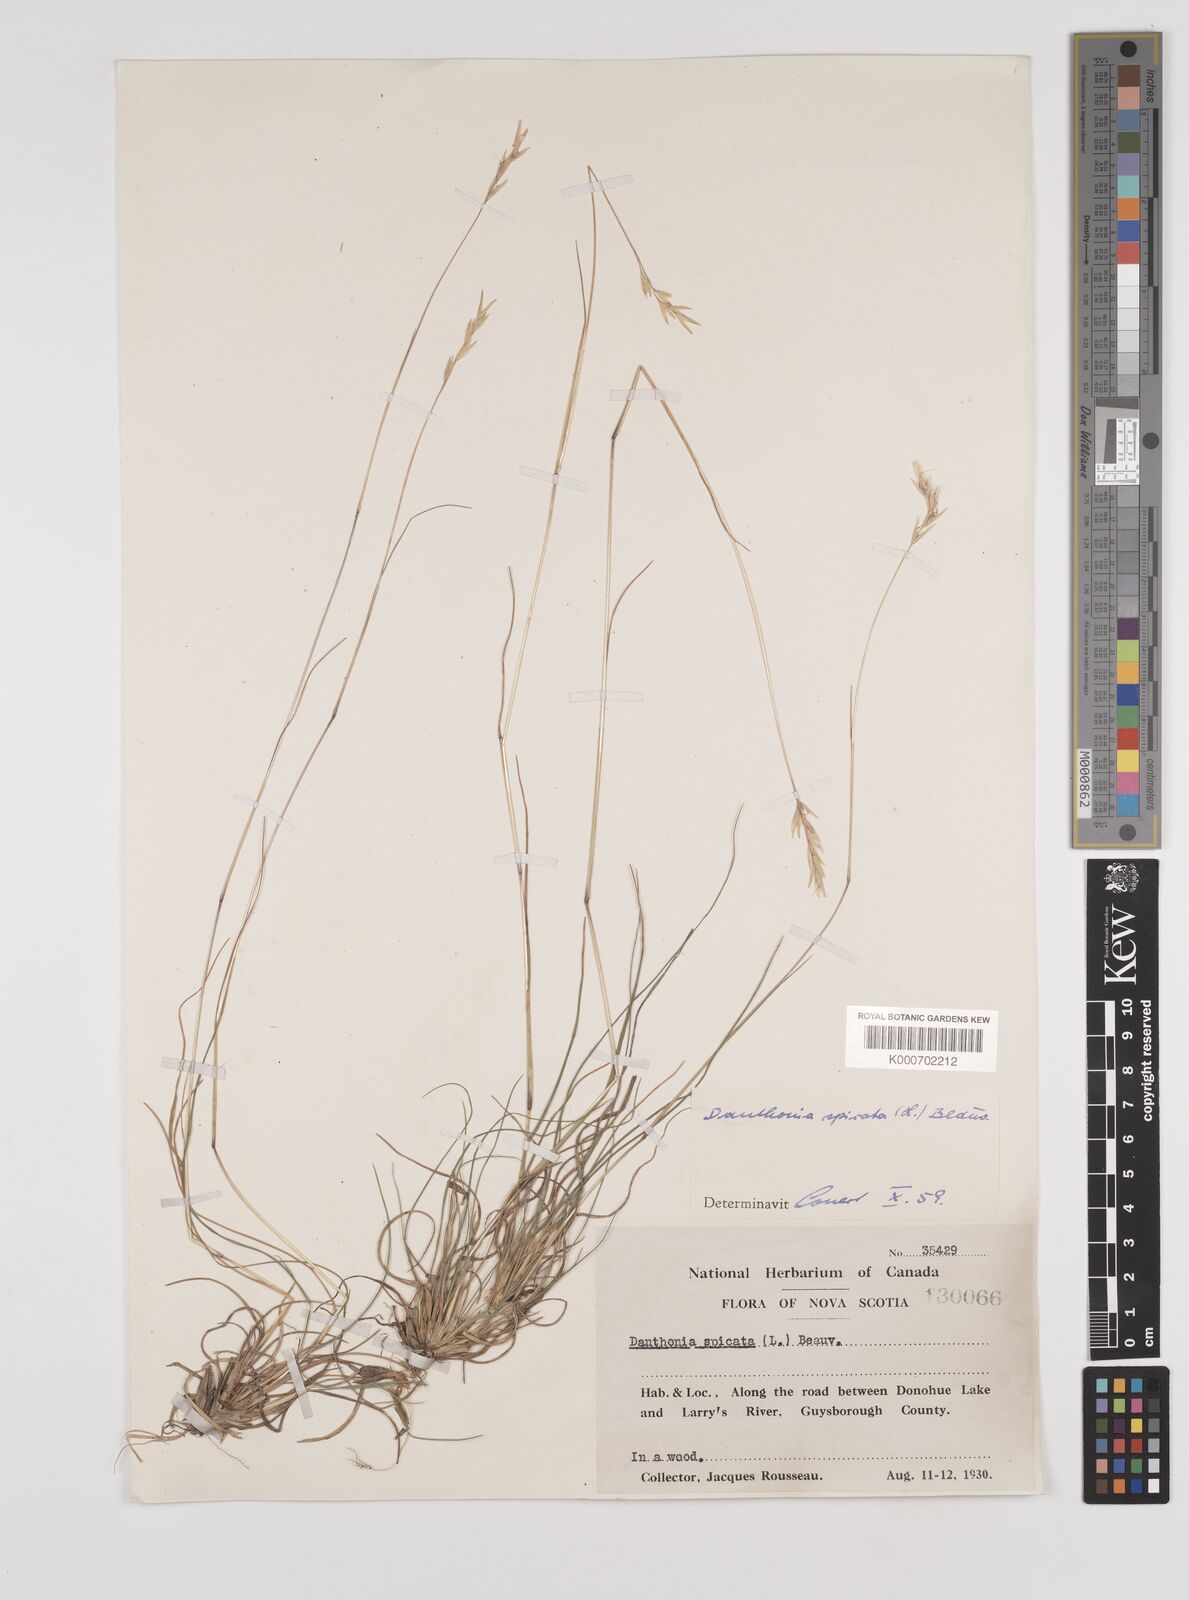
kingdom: Plantae
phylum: Tracheophyta
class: Liliopsida
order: Poales
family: Poaceae
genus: Danthonia
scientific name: Danthonia spicata
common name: Common wild oatgrass
